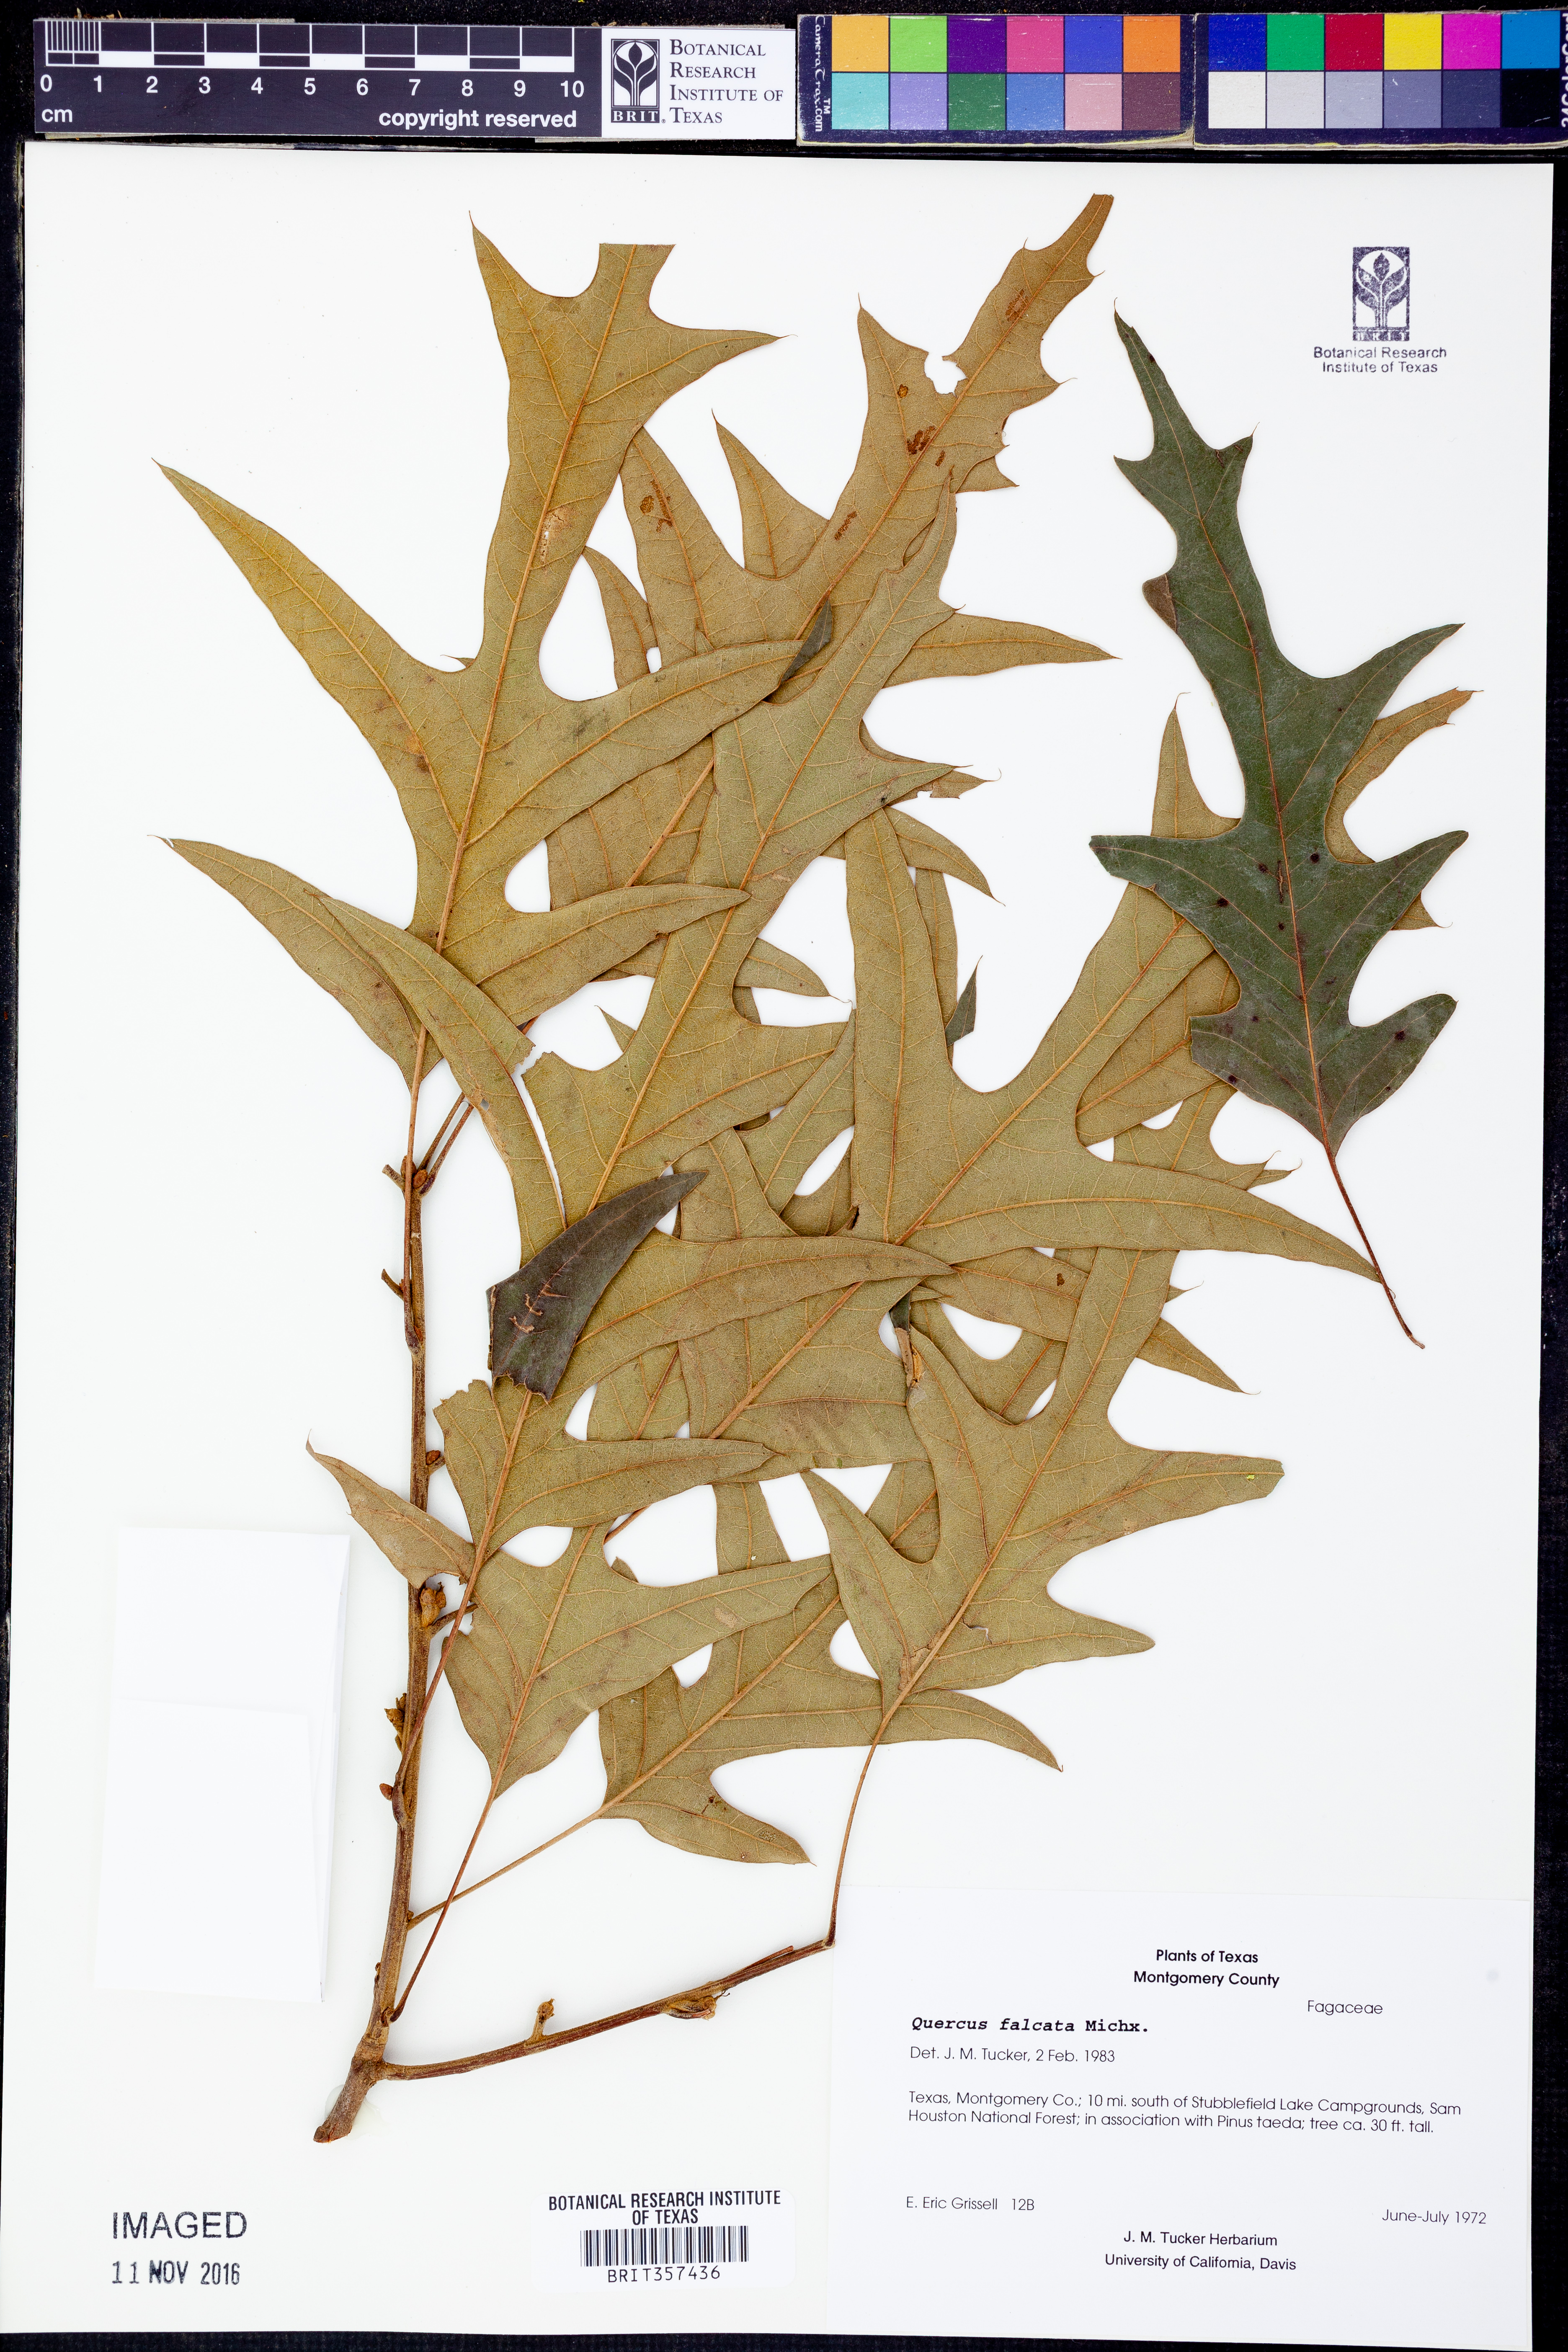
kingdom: Plantae
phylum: Tracheophyta
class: Magnoliopsida
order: Fagales
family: Fagaceae
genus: Quercus
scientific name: Quercus falcata
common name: Southern red oak
